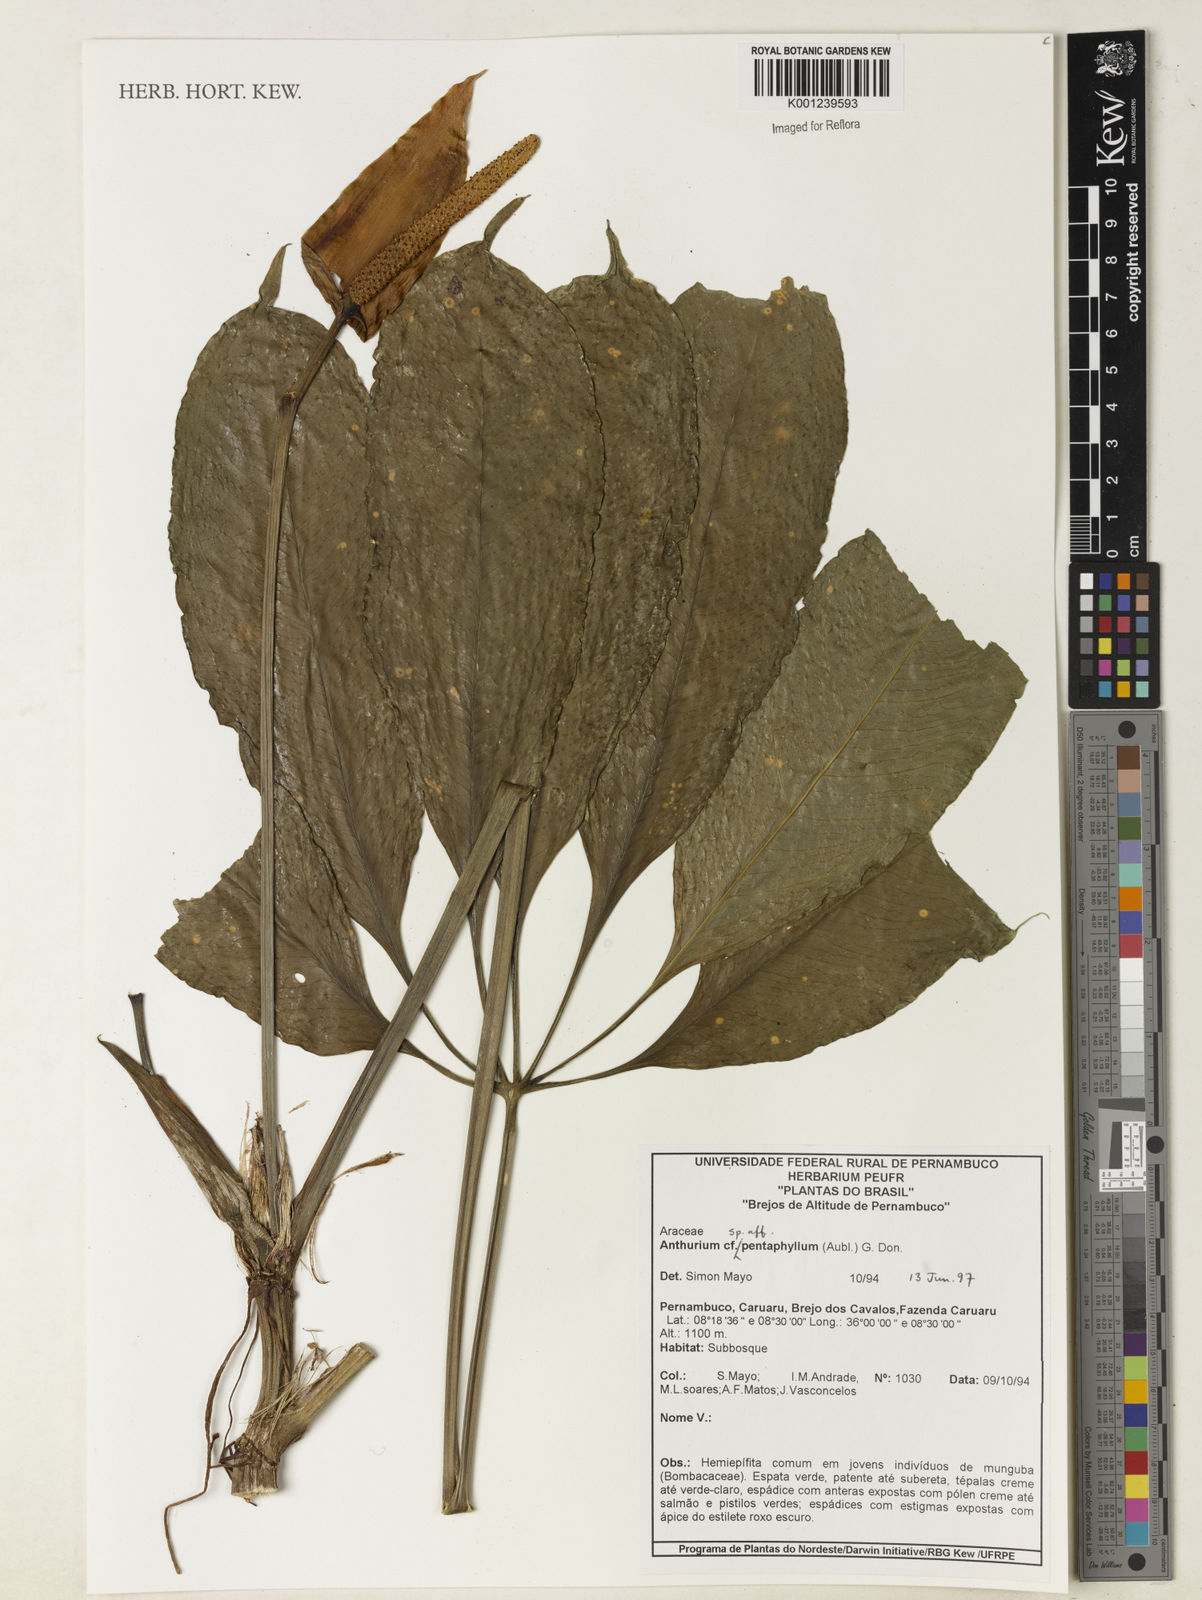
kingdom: Plantae
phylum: Tracheophyta
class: Liliopsida
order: Alismatales
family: Araceae
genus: Anthurium
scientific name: Anthurium pentaphyllum
